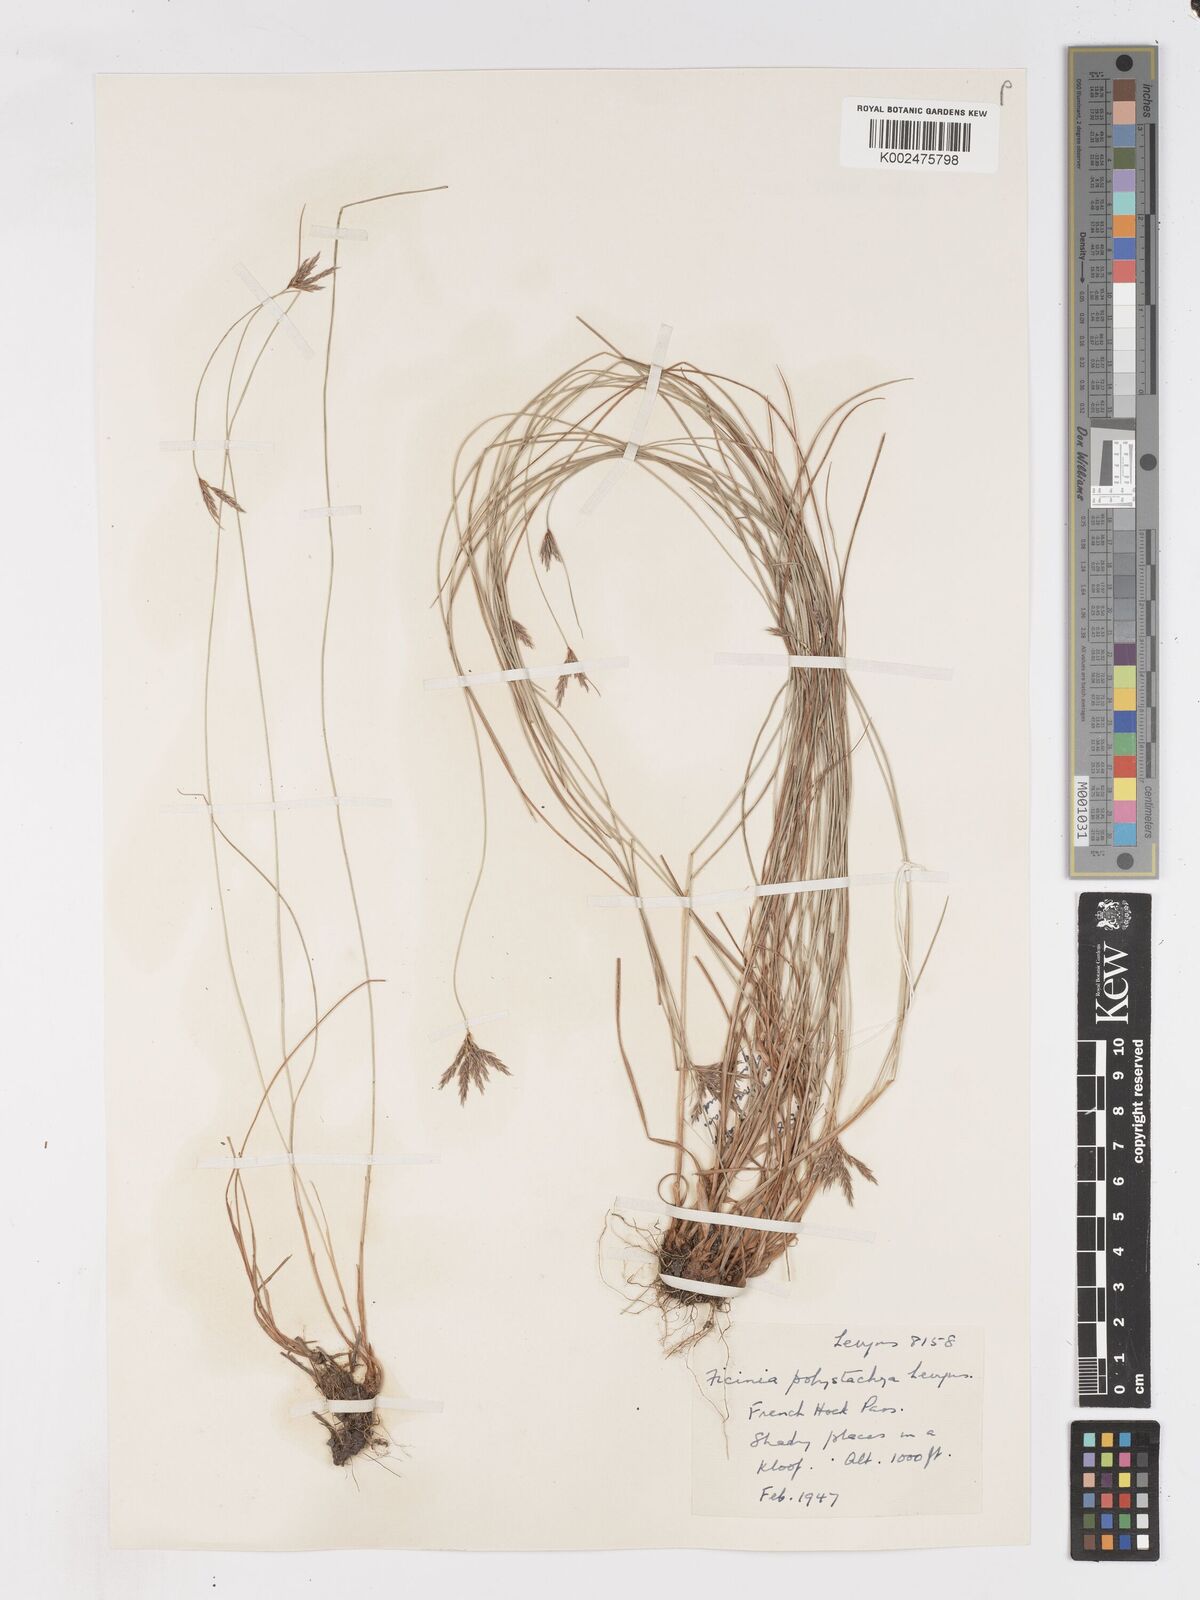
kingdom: Plantae
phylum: Tracheophyta
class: Liliopsida
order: Poales
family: Cyperaceae
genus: Ficinia
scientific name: Ficinia angustifolia
